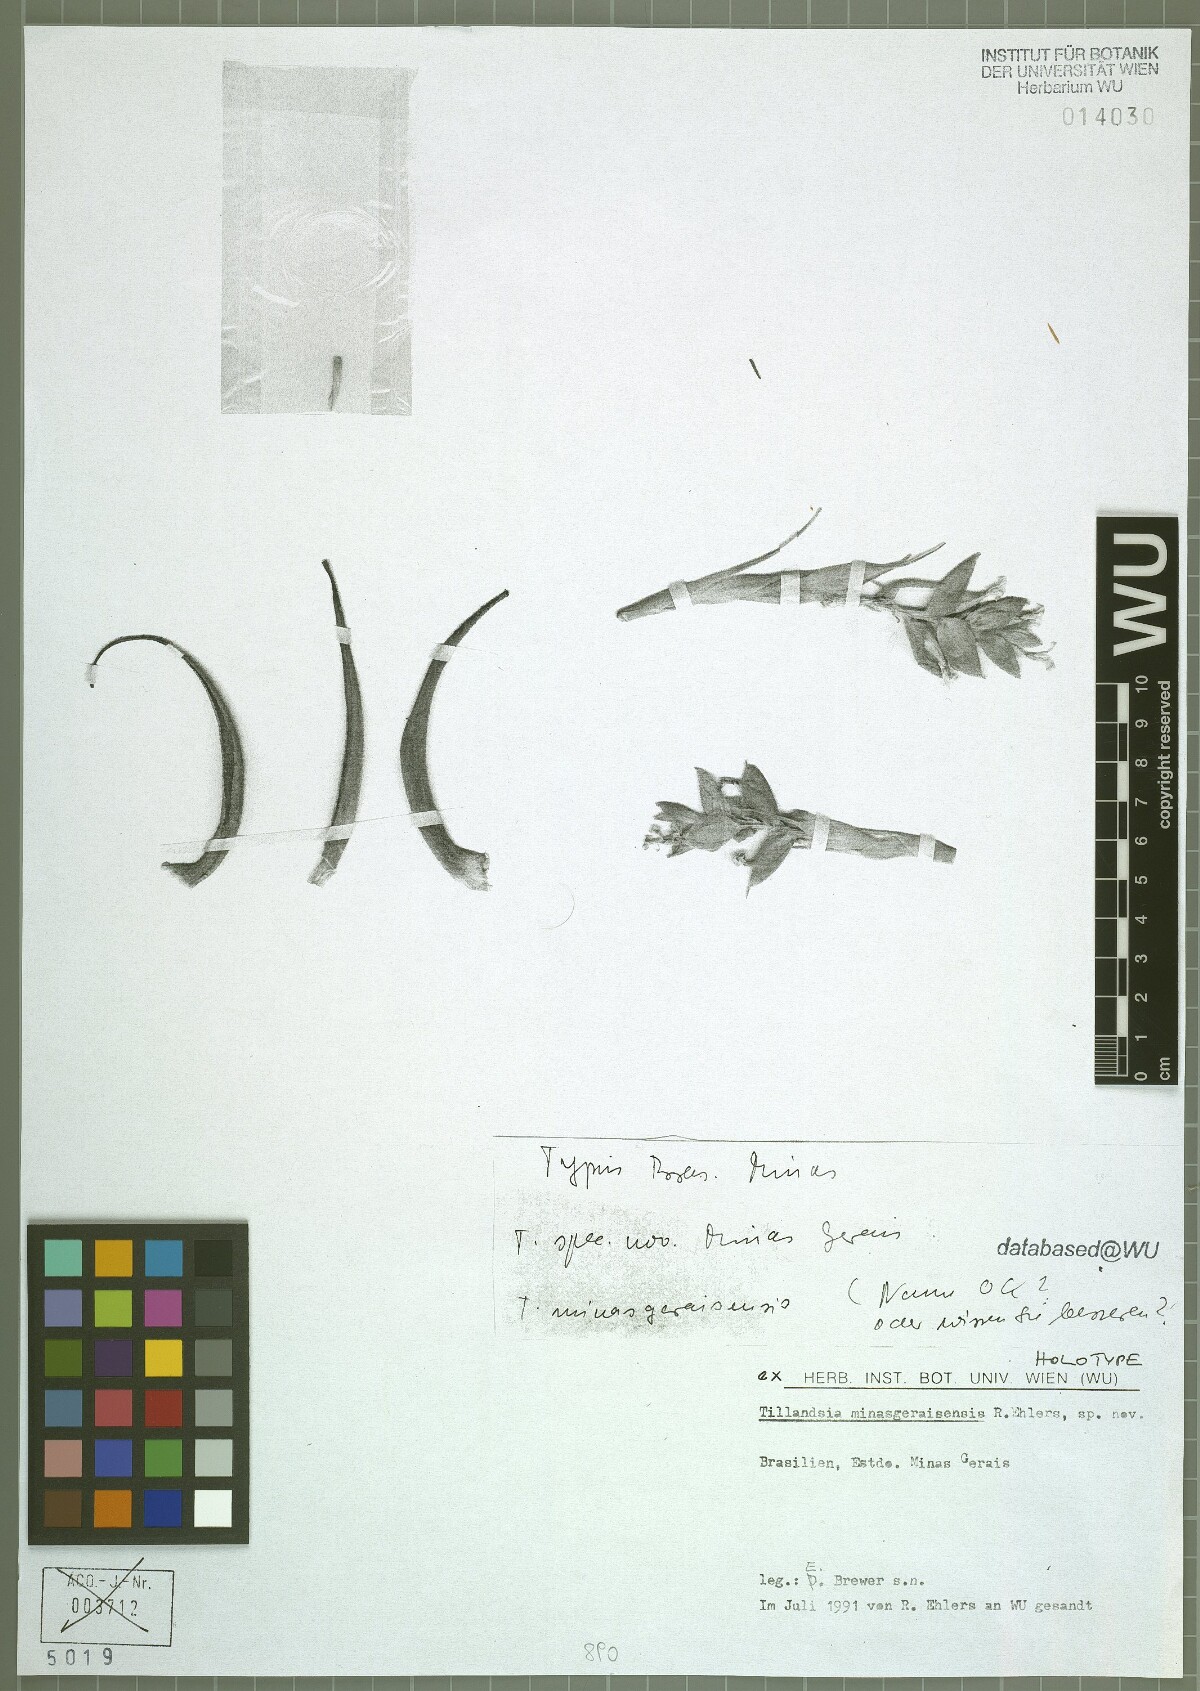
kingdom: Plantae
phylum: Tracheophyta
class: Liliopsida
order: Poales
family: Bromeliaceae
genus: Tillandsia
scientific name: Tillandsia minasgeraisensis
